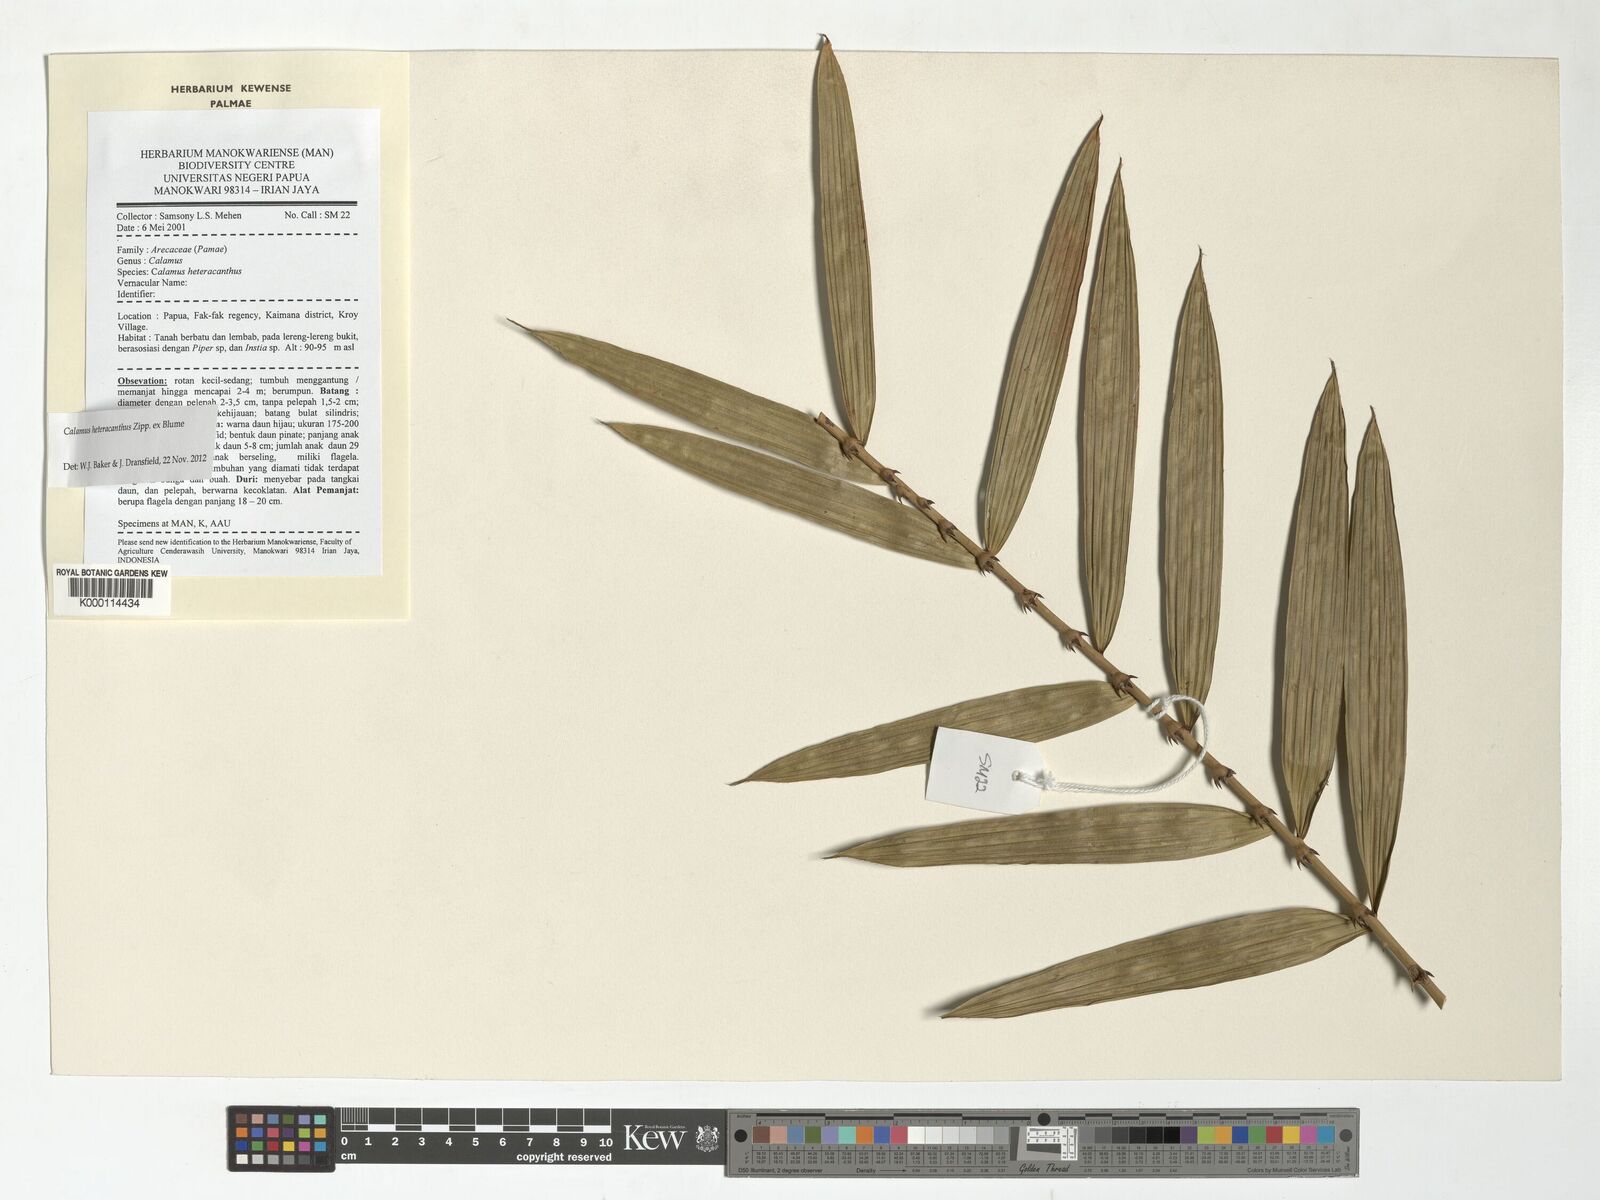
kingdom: Plantae
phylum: Tracheophyta
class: Liliopsida
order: Arecales
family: Arecaceae
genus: Calamus
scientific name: Calamus heteracanthus
